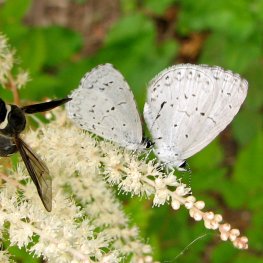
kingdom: Animalia
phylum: Arthropoda
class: Insecta
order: Lepidoptera
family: Lycaenidae
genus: Cyaniris
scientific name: Cyaniris neglecta
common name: Summer Azure
